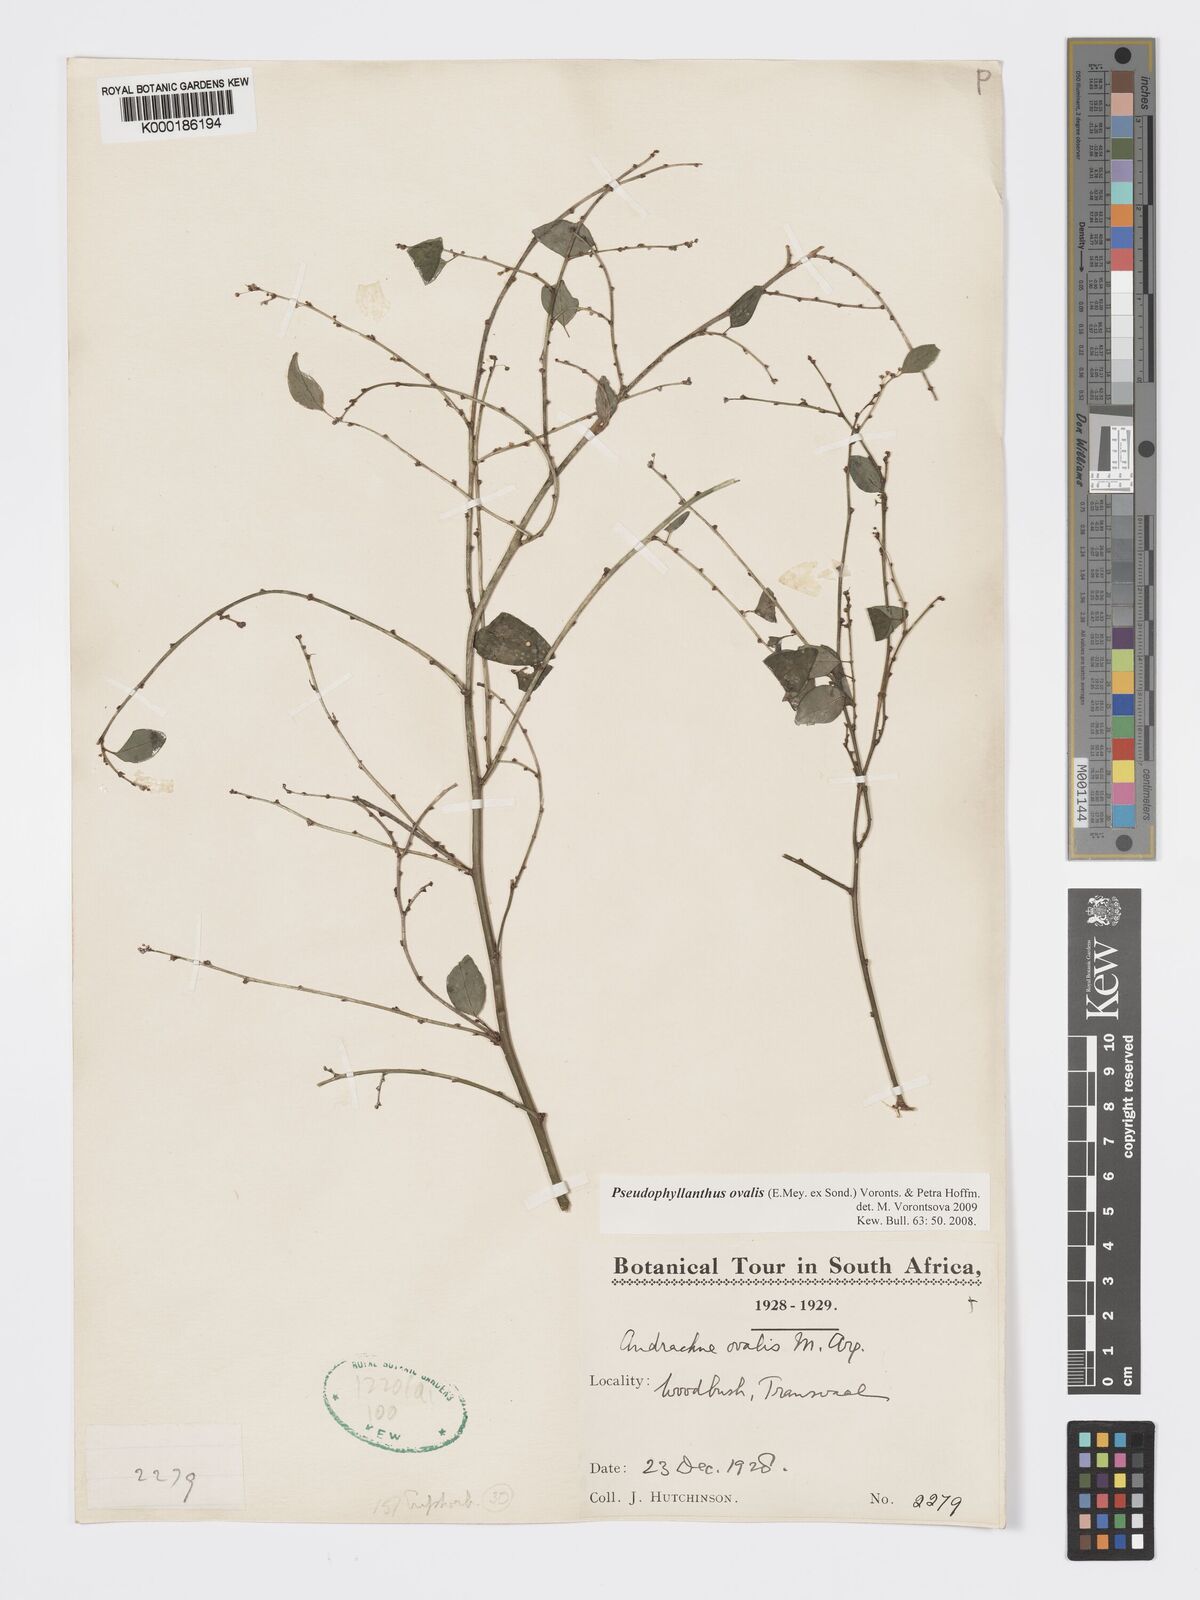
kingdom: Plantae
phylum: Tracheophyta
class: Magnoliopsida
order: Malpighiales
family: Phyllanthaceae
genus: Pseudophyllanthus
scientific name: Pseudophyllanthus ovalis
